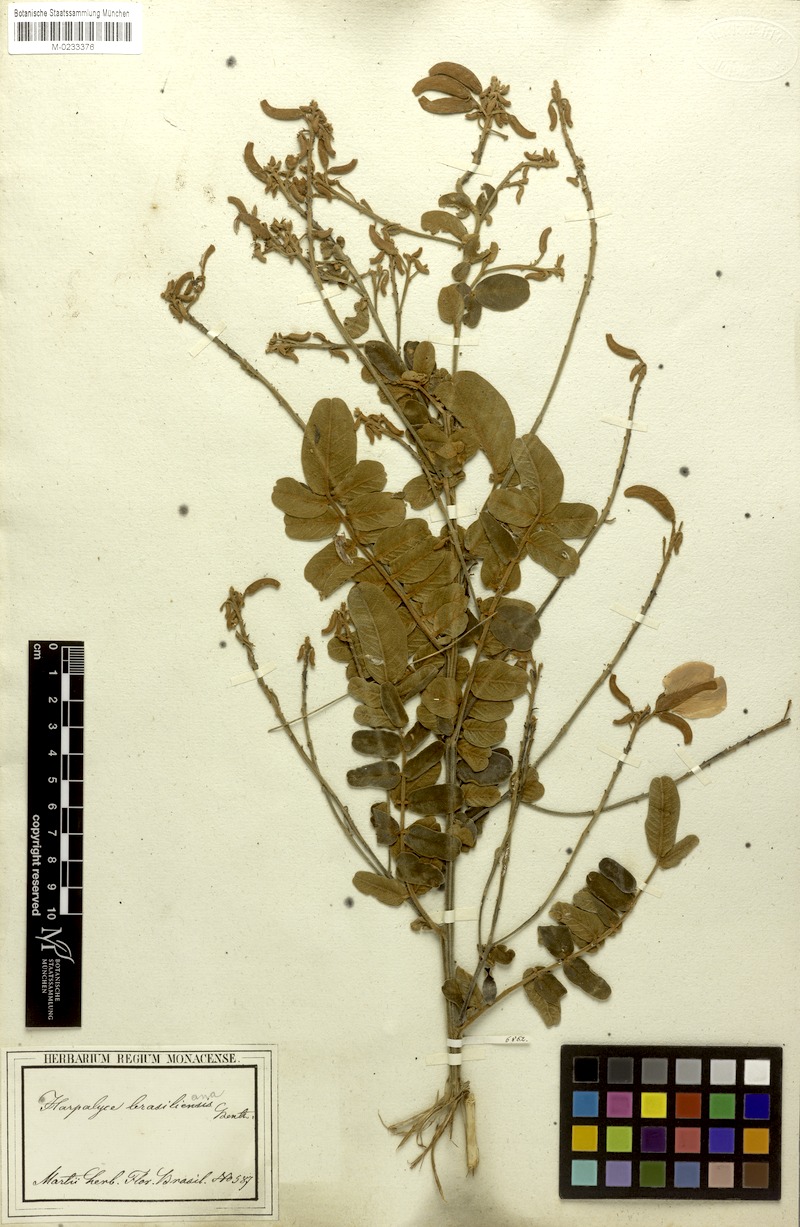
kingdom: Plantae
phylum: Tracheophyta
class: Magnoliopsida
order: Fabales
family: Fabaceae
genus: Harpalyce
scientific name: Harpalyce brasiliana
